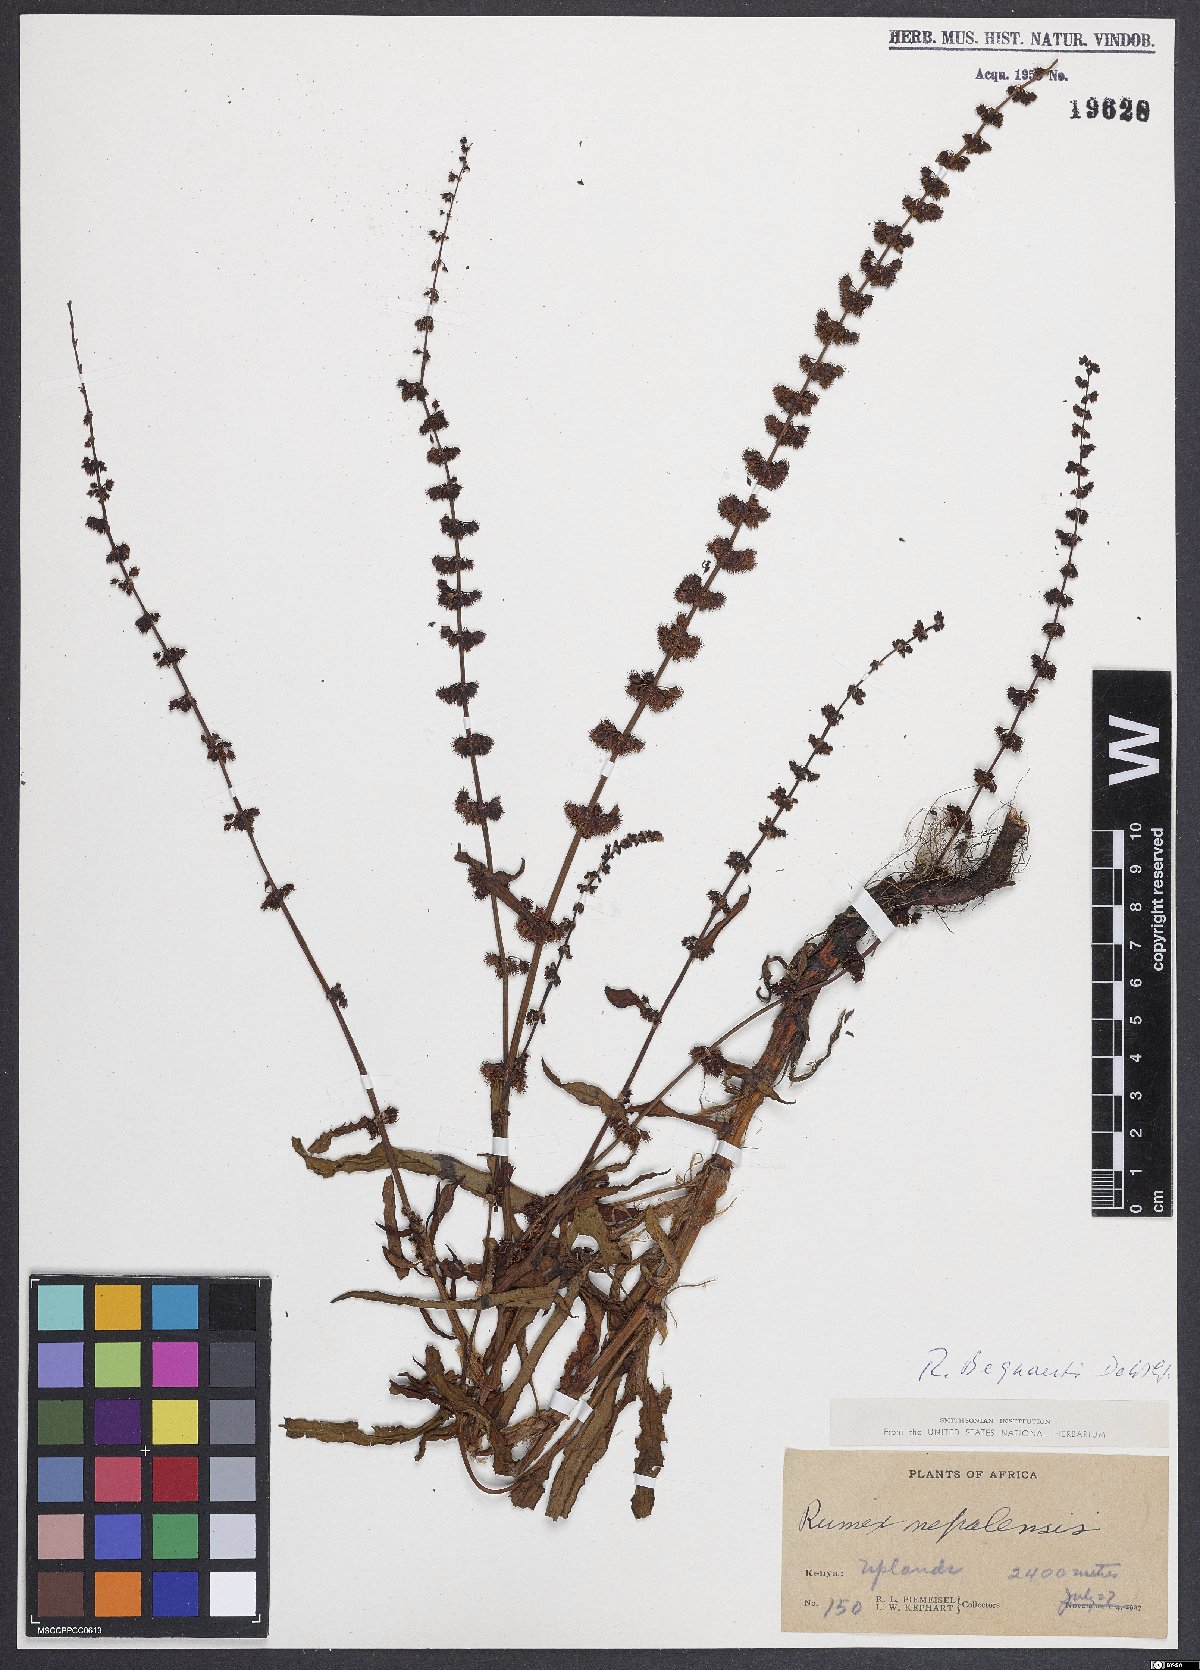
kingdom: Plantae
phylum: Tracheophyta
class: Magnoliopsida
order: Caryophyllales
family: Polygonaceae
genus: Rumex
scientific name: Rumex bequaertii
